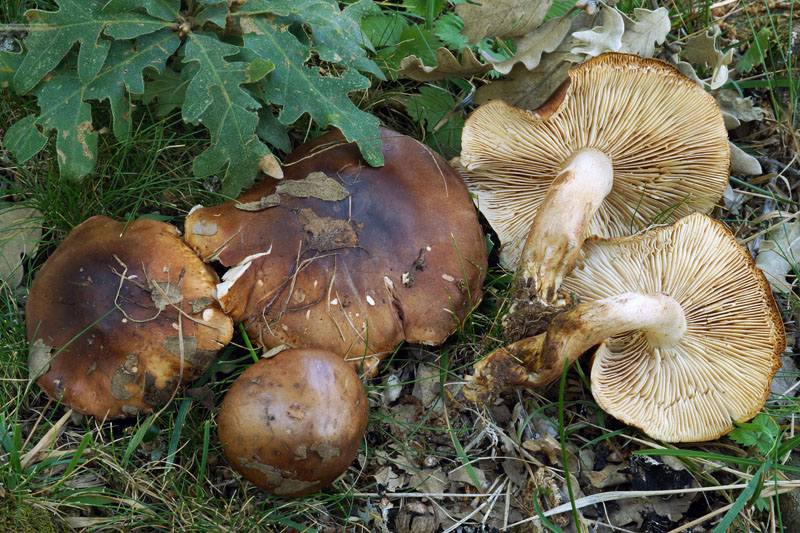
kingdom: Fungi
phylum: Basidiomycota
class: Agaricomycetes
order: Agaricales
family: Tricholomataceae
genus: Tricholoma
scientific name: Tricholoma quercetorum
